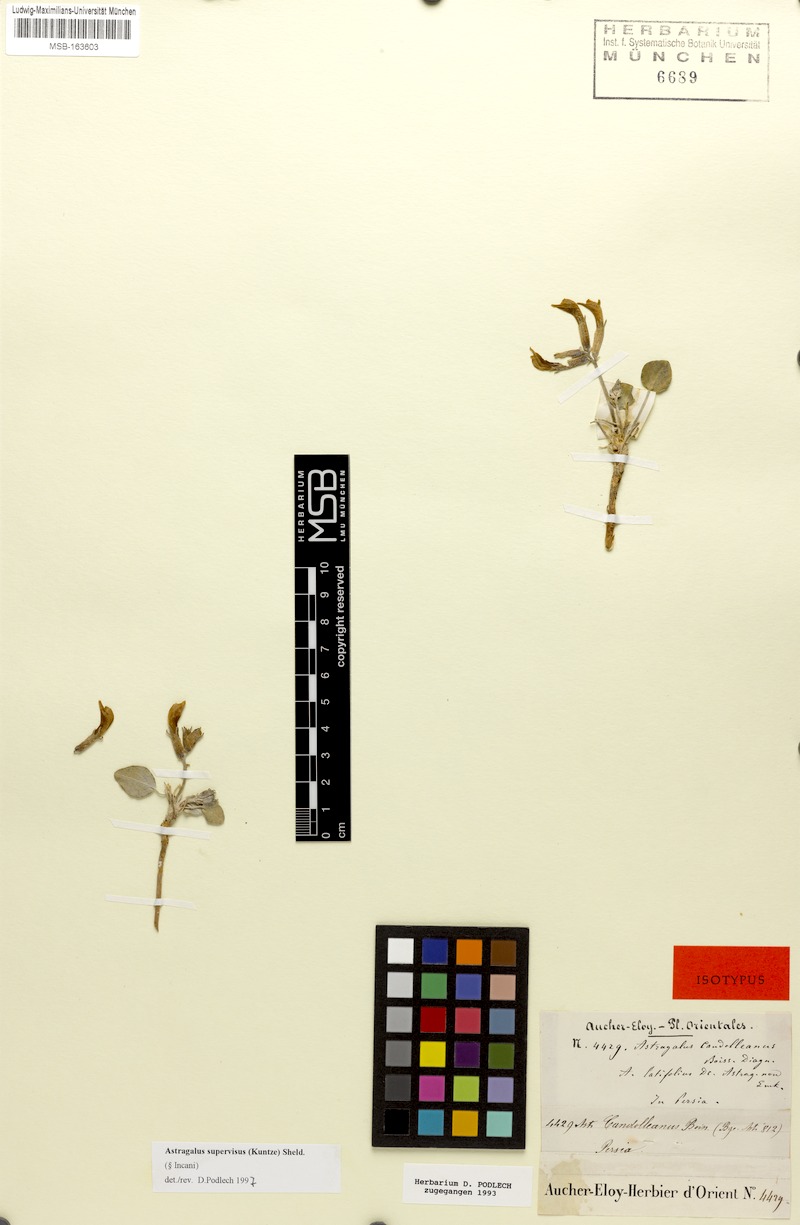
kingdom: Plantae
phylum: Tracheophyta
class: Magnoliopsida
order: Fabales
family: Fabaceae
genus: Astragalus
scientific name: Astragalus supervisus
